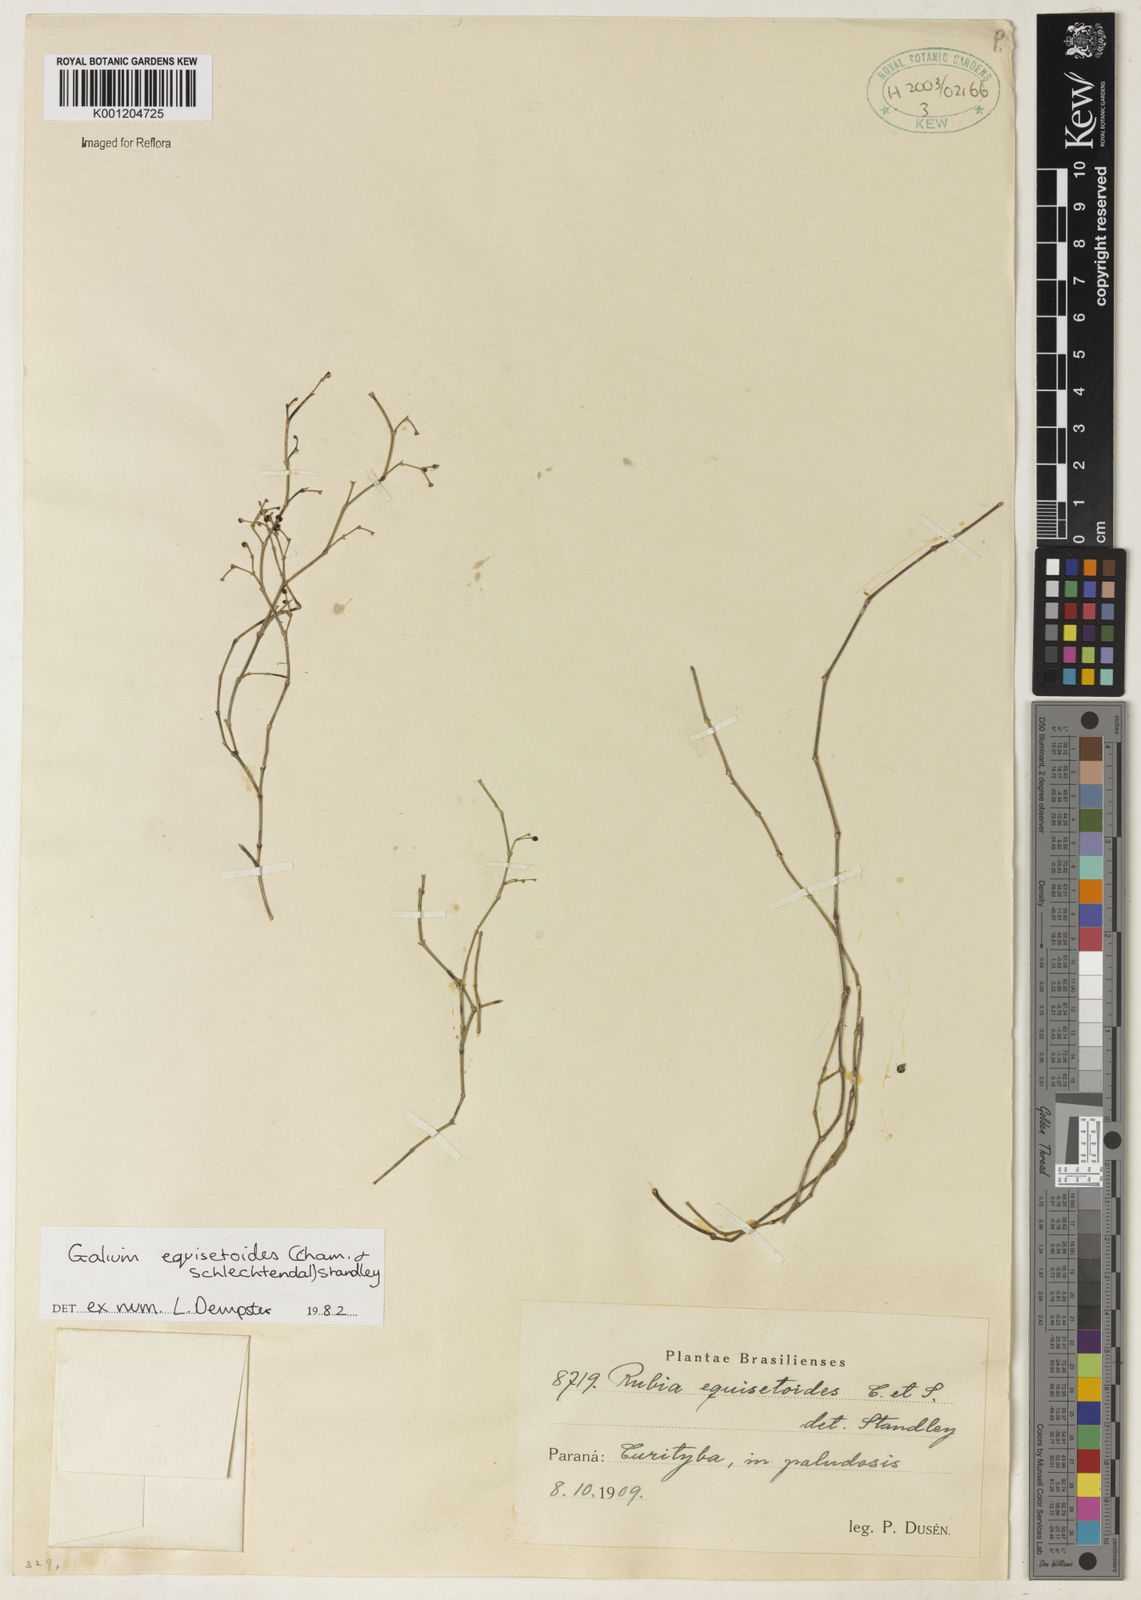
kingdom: Plantae
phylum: Tracheophyta
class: Magnoliopsida
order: Gentianales
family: Rubiaceae
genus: Galium
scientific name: Galium equisetoides
